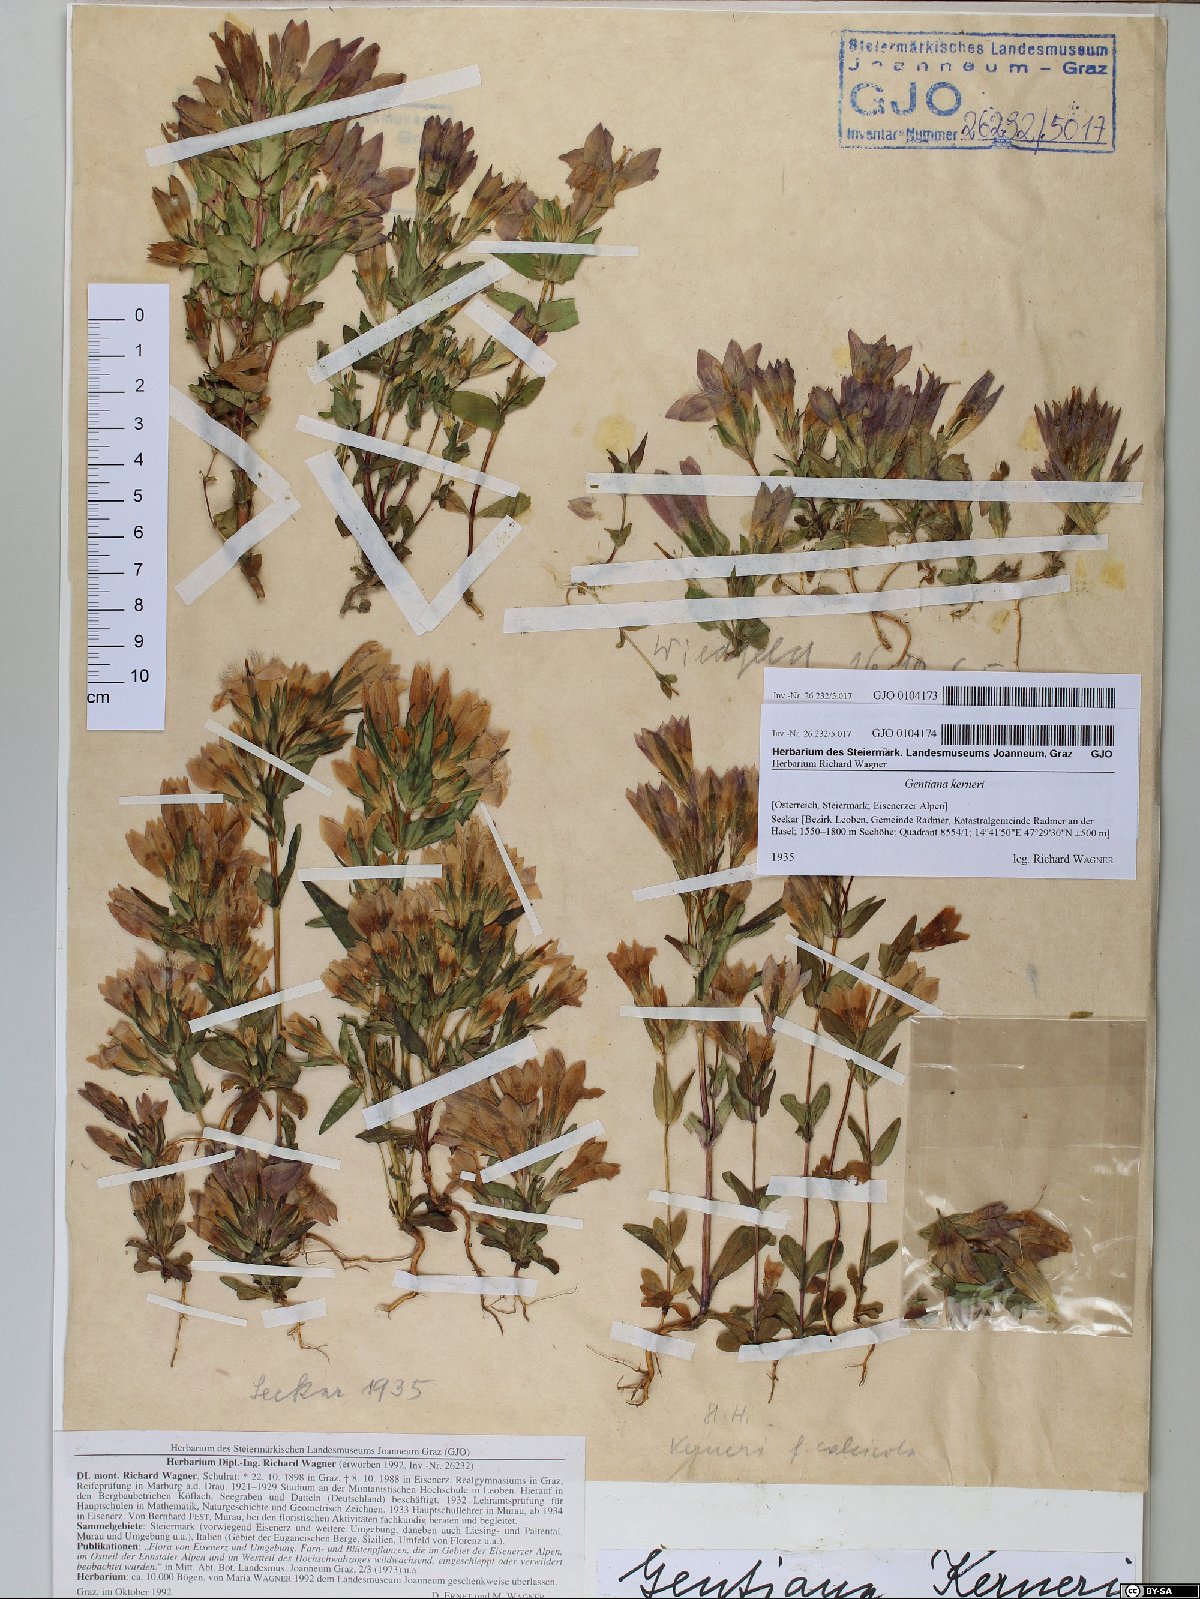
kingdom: Plantae
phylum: Tracheophyta
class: Magnoliopsida
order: Gentianales
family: Gentianaceae
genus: Gentianella
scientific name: Gentianella rhaetica
